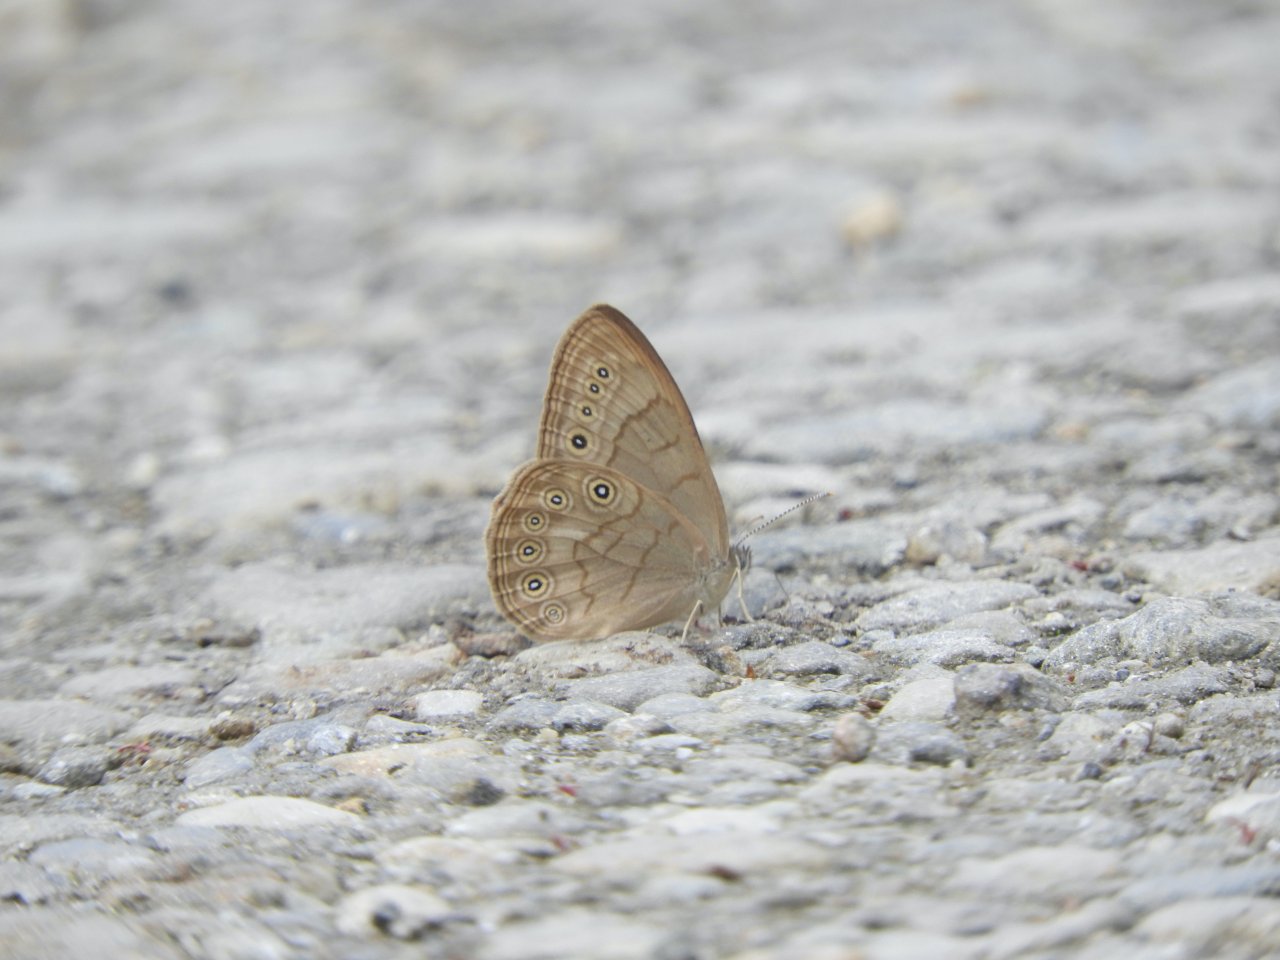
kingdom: Animalia
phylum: Arthropoda
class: Insecta
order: Lepidoptera
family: Nymphalidae
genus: Lethe
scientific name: Lethe eurydice
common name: Eyed Brown
